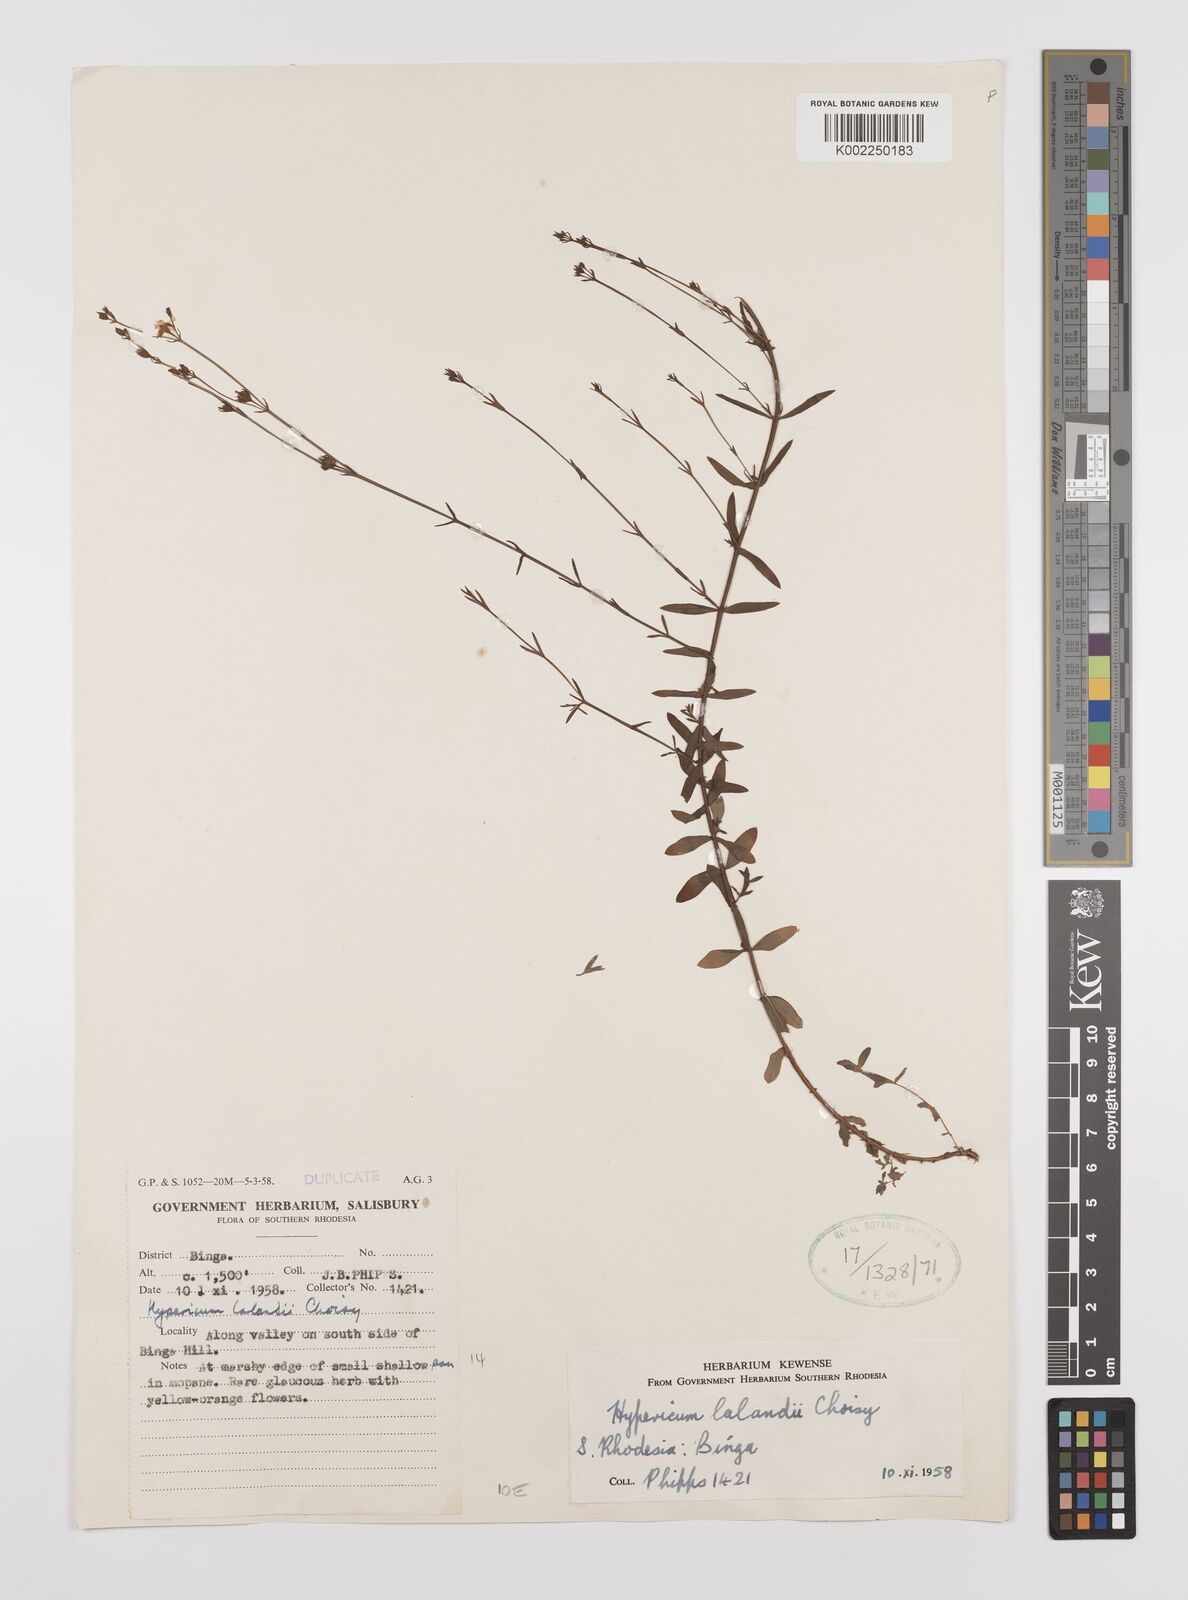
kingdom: Plantae
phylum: Tracheophyta
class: Magnoliopsida
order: Malpighiales
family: Hypericaceae
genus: Hypericum
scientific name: Hypericum lalandii
